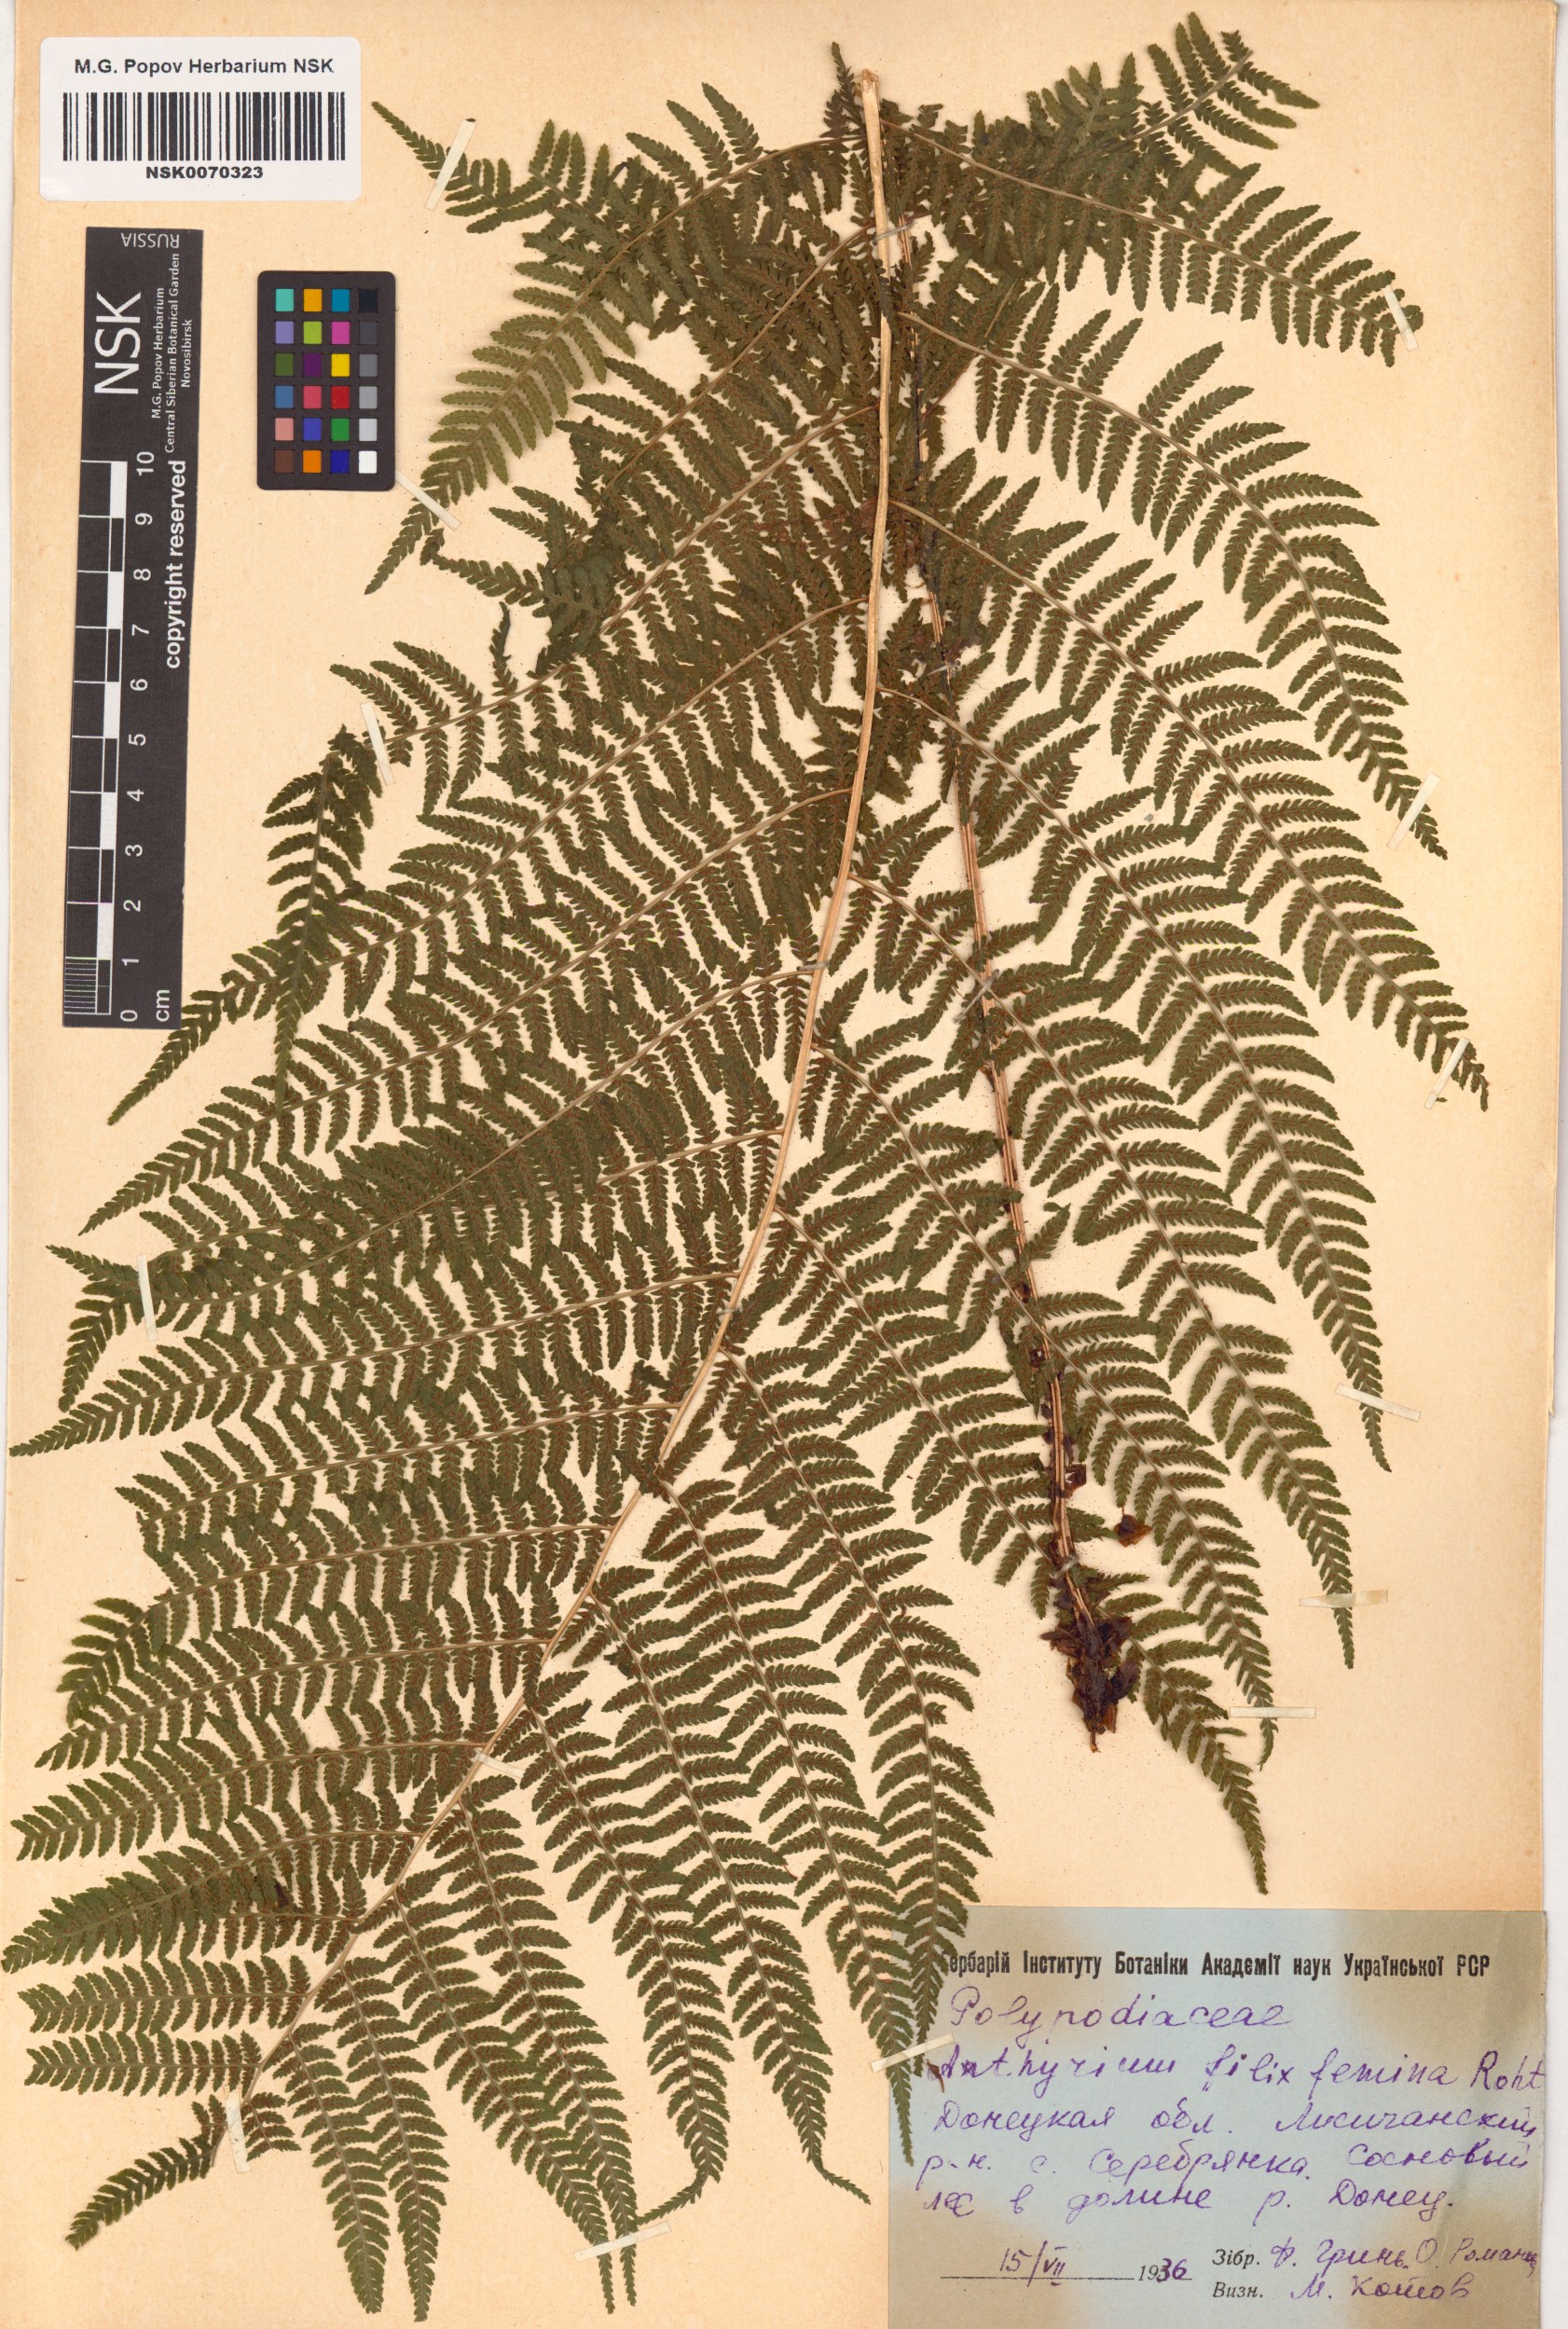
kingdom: Plantae
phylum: Tracheophyta
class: Polypodiopsida
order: Polypodiales
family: Athyriaceae
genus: Athyrium
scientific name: Athyrium filix-femina
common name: Lady fern
